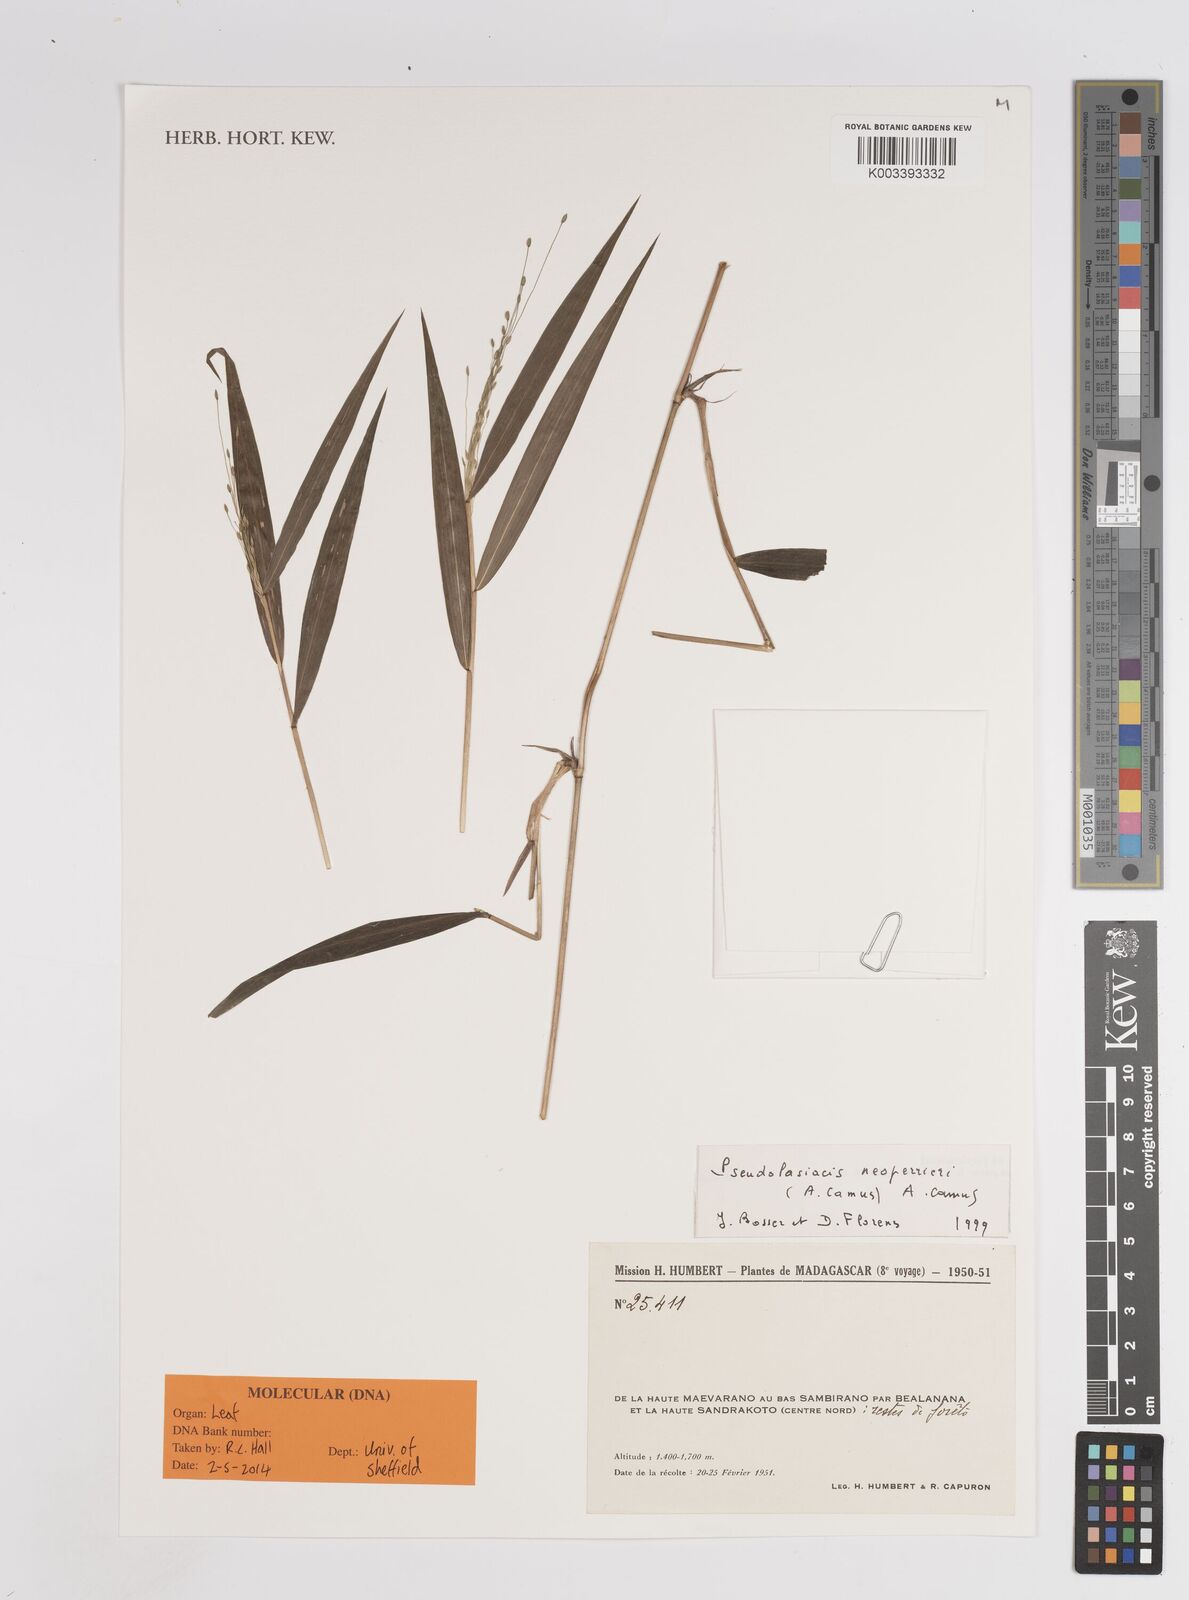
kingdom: Plantae
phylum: Tracheophyta
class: Liliopsida
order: Poales
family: Poaceae
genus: Pseudolasiacis
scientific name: Pseudolasiacis neoperrieri
